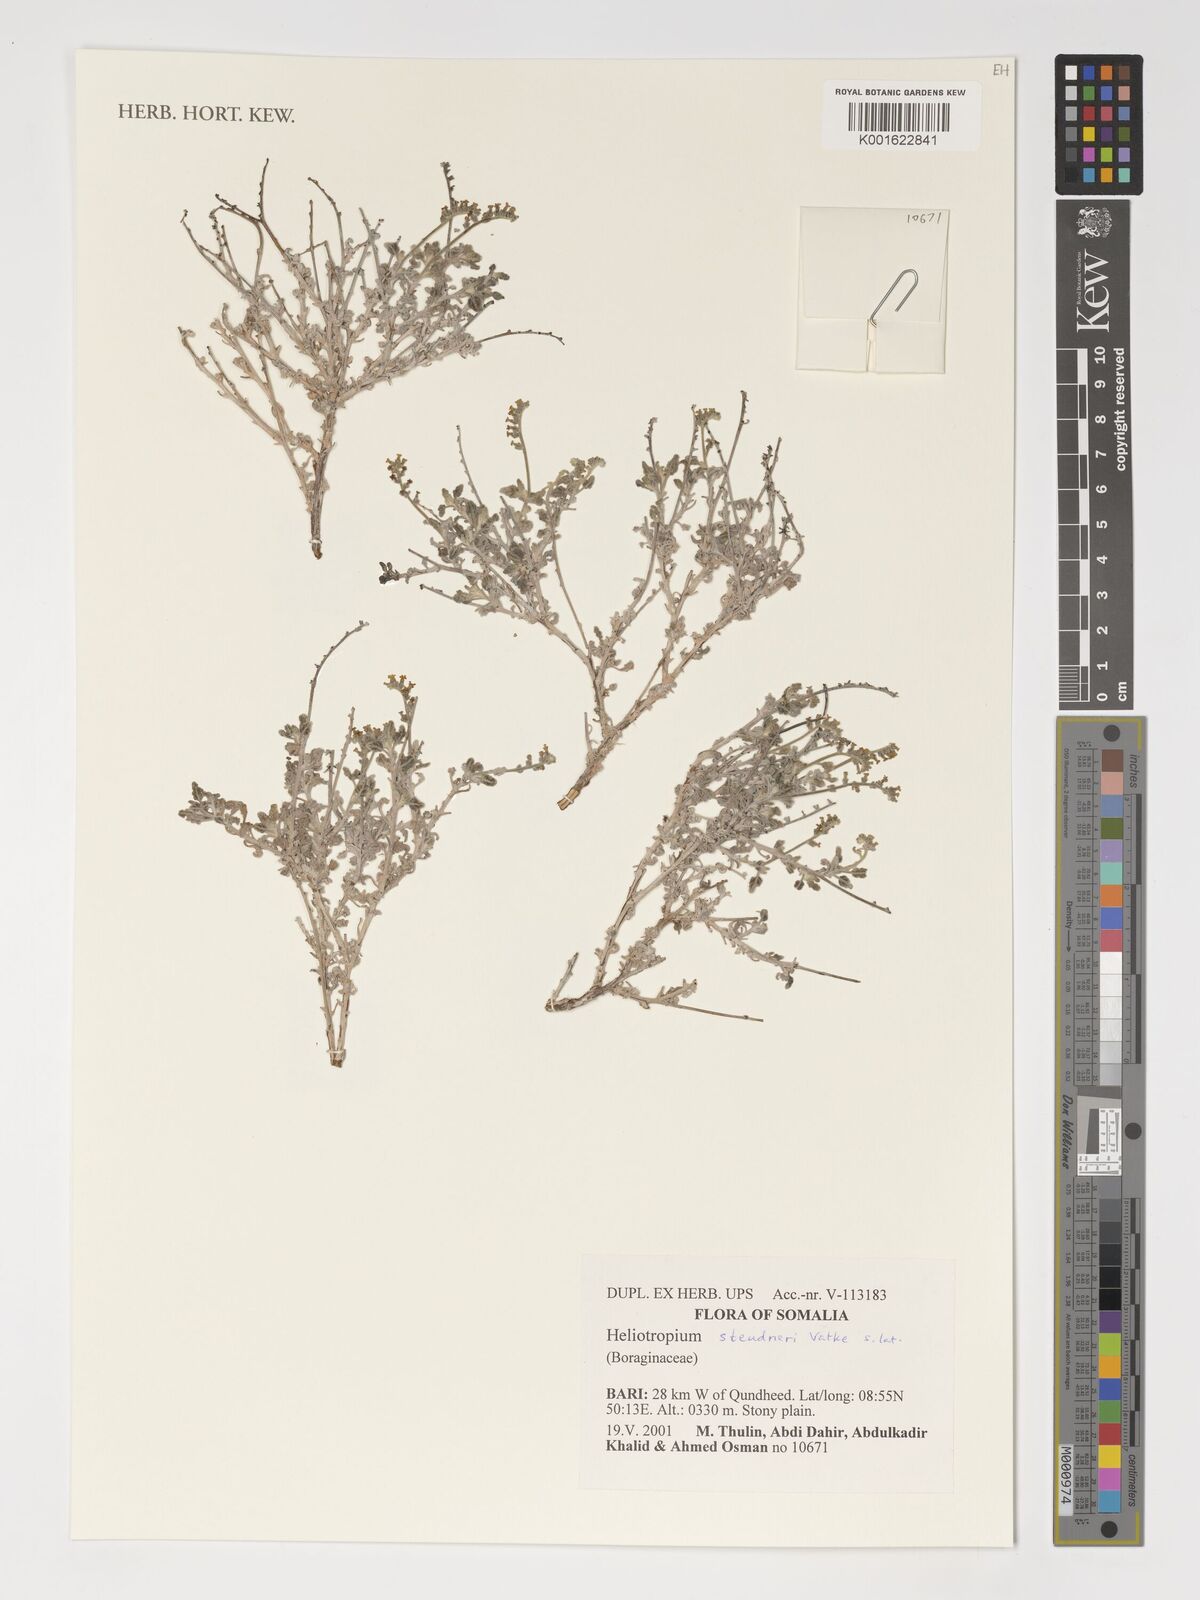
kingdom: Plantae
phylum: Tracheophyta
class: Magnoliopsida
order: Boraginales
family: Heliotropiaceae
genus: Heliotropium
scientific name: Heliotropium steudneri
